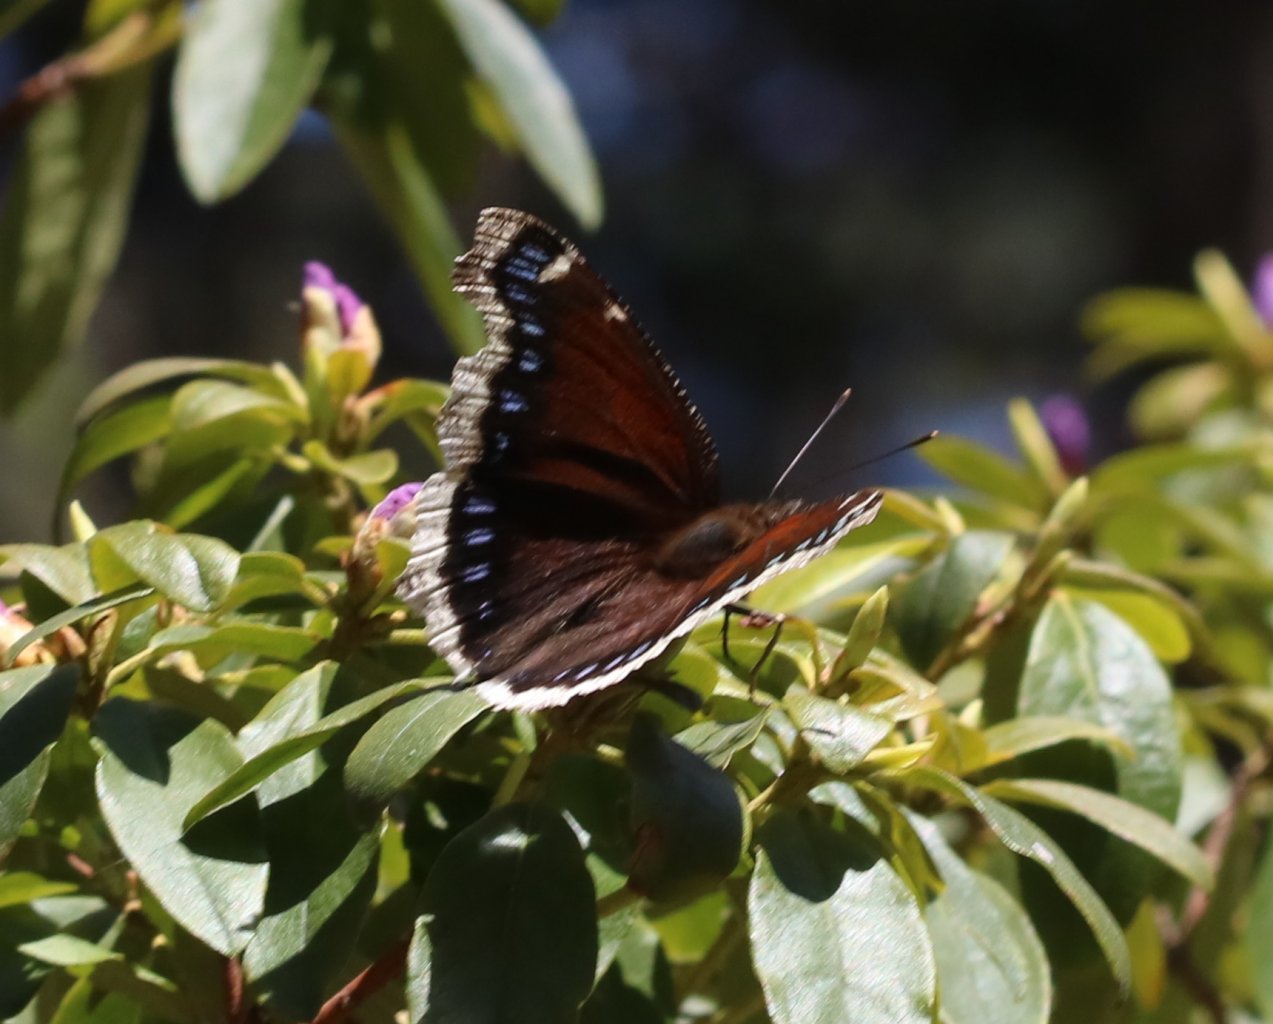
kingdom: Animalia
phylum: Arthropoda
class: Insecta
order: Lepidoptera
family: Nymphalidae
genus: Nymphalis
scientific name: Nymphalis antiopa
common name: Mourning Cloak
